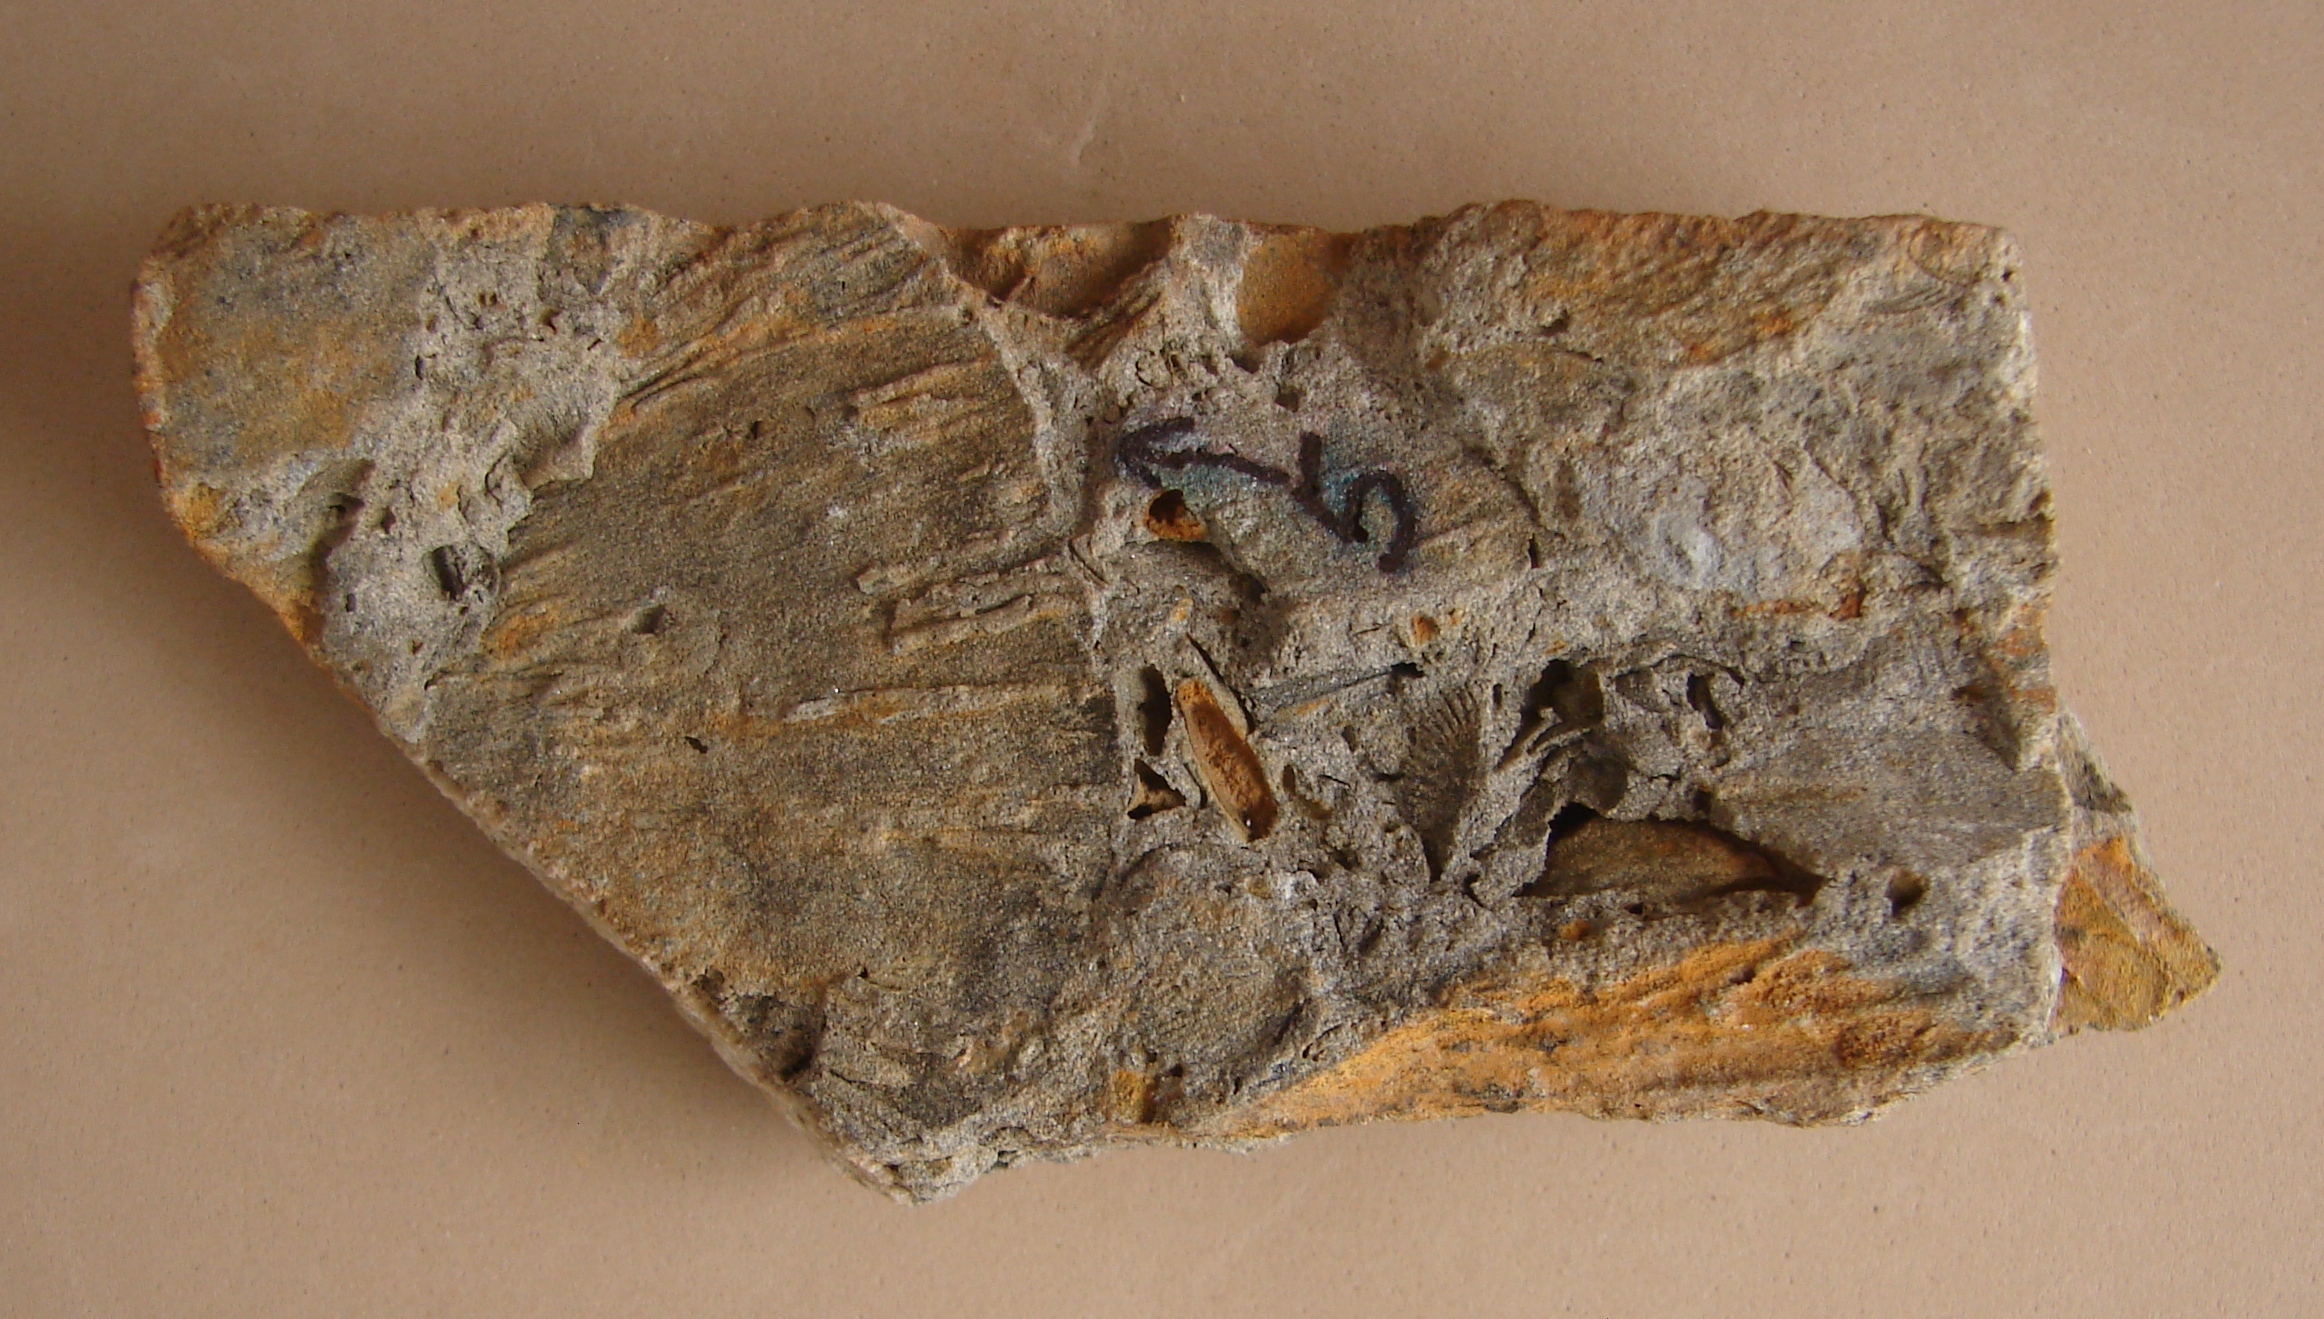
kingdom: Animalia
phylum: Brachiopoda
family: Leptostrophiidae
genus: Leptostrophiella
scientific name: Leptostrophiella
